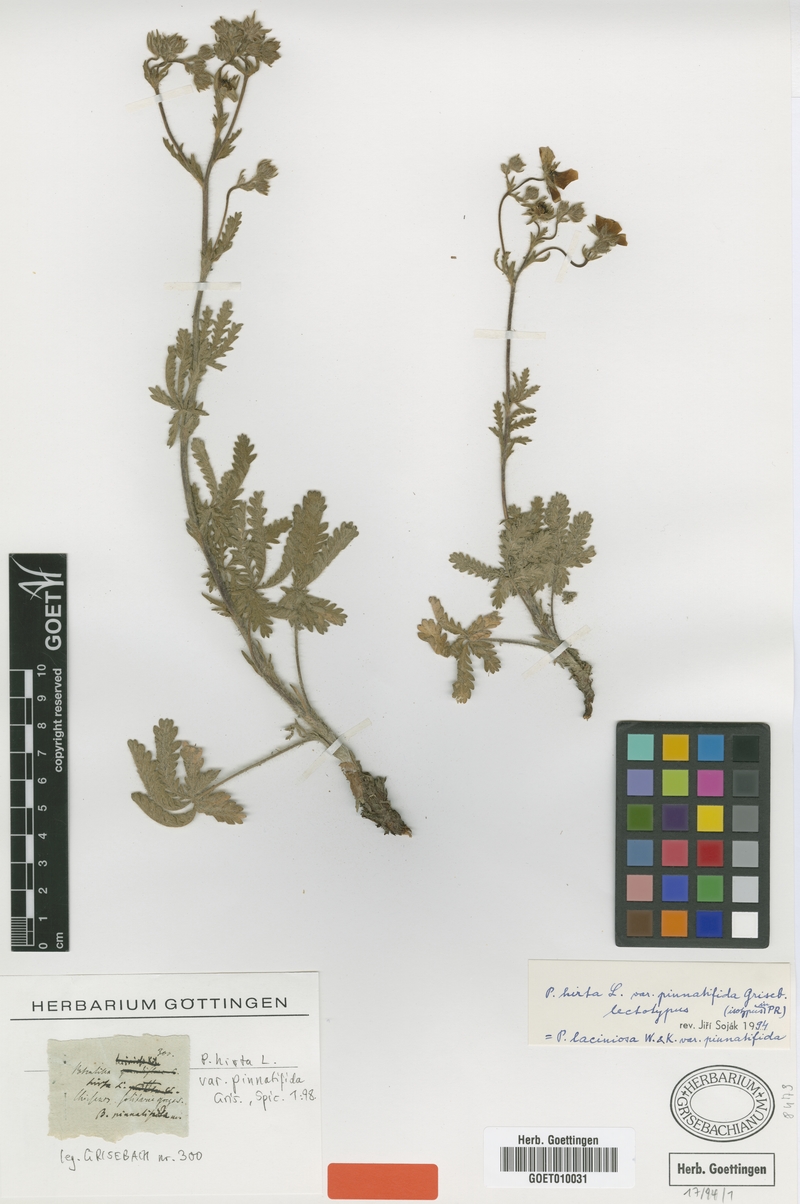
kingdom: Plantae
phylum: Tracheophyta
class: Magnoliopsida
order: Rosales
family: Rosaceae
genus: Potentilla
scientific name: Potentilla recta
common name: Sulphur cinquefoil
